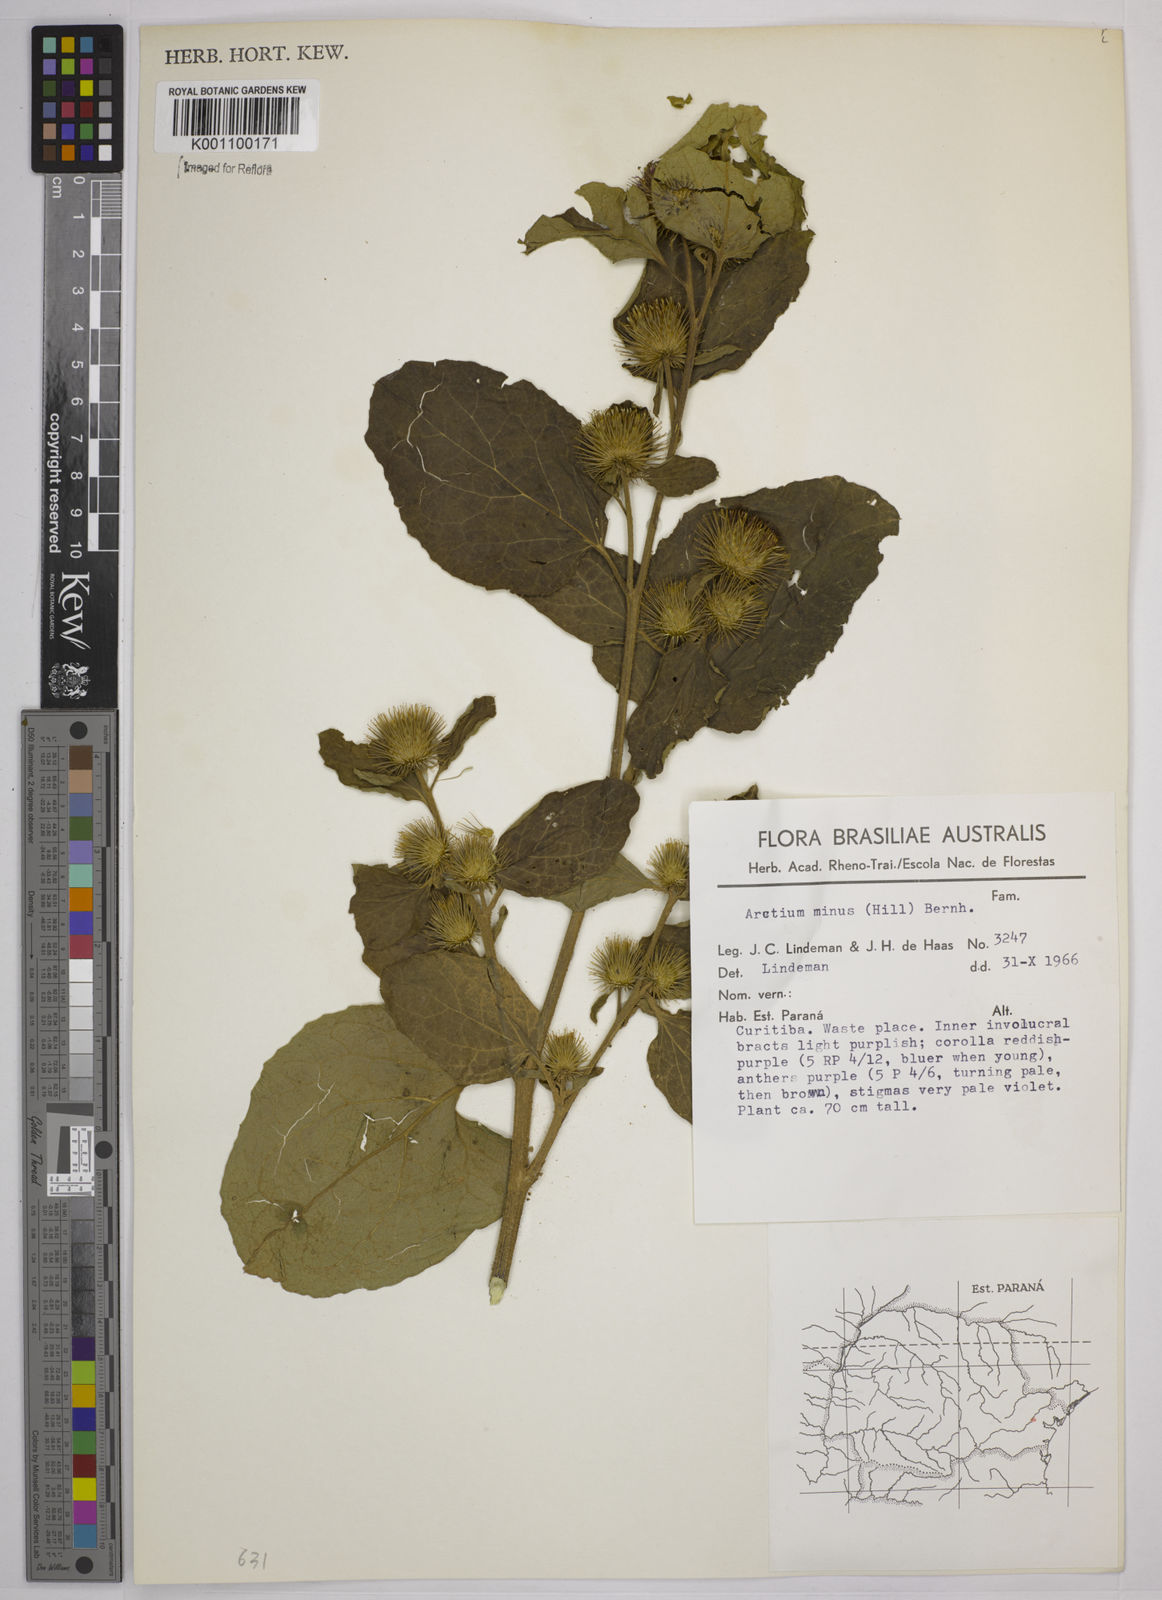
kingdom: Plantae
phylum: Tracheophyta
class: Magnoliopsida
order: Asterales
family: Asteraceae
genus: Arctium
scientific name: Arctium minus
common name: Lesser burdock
